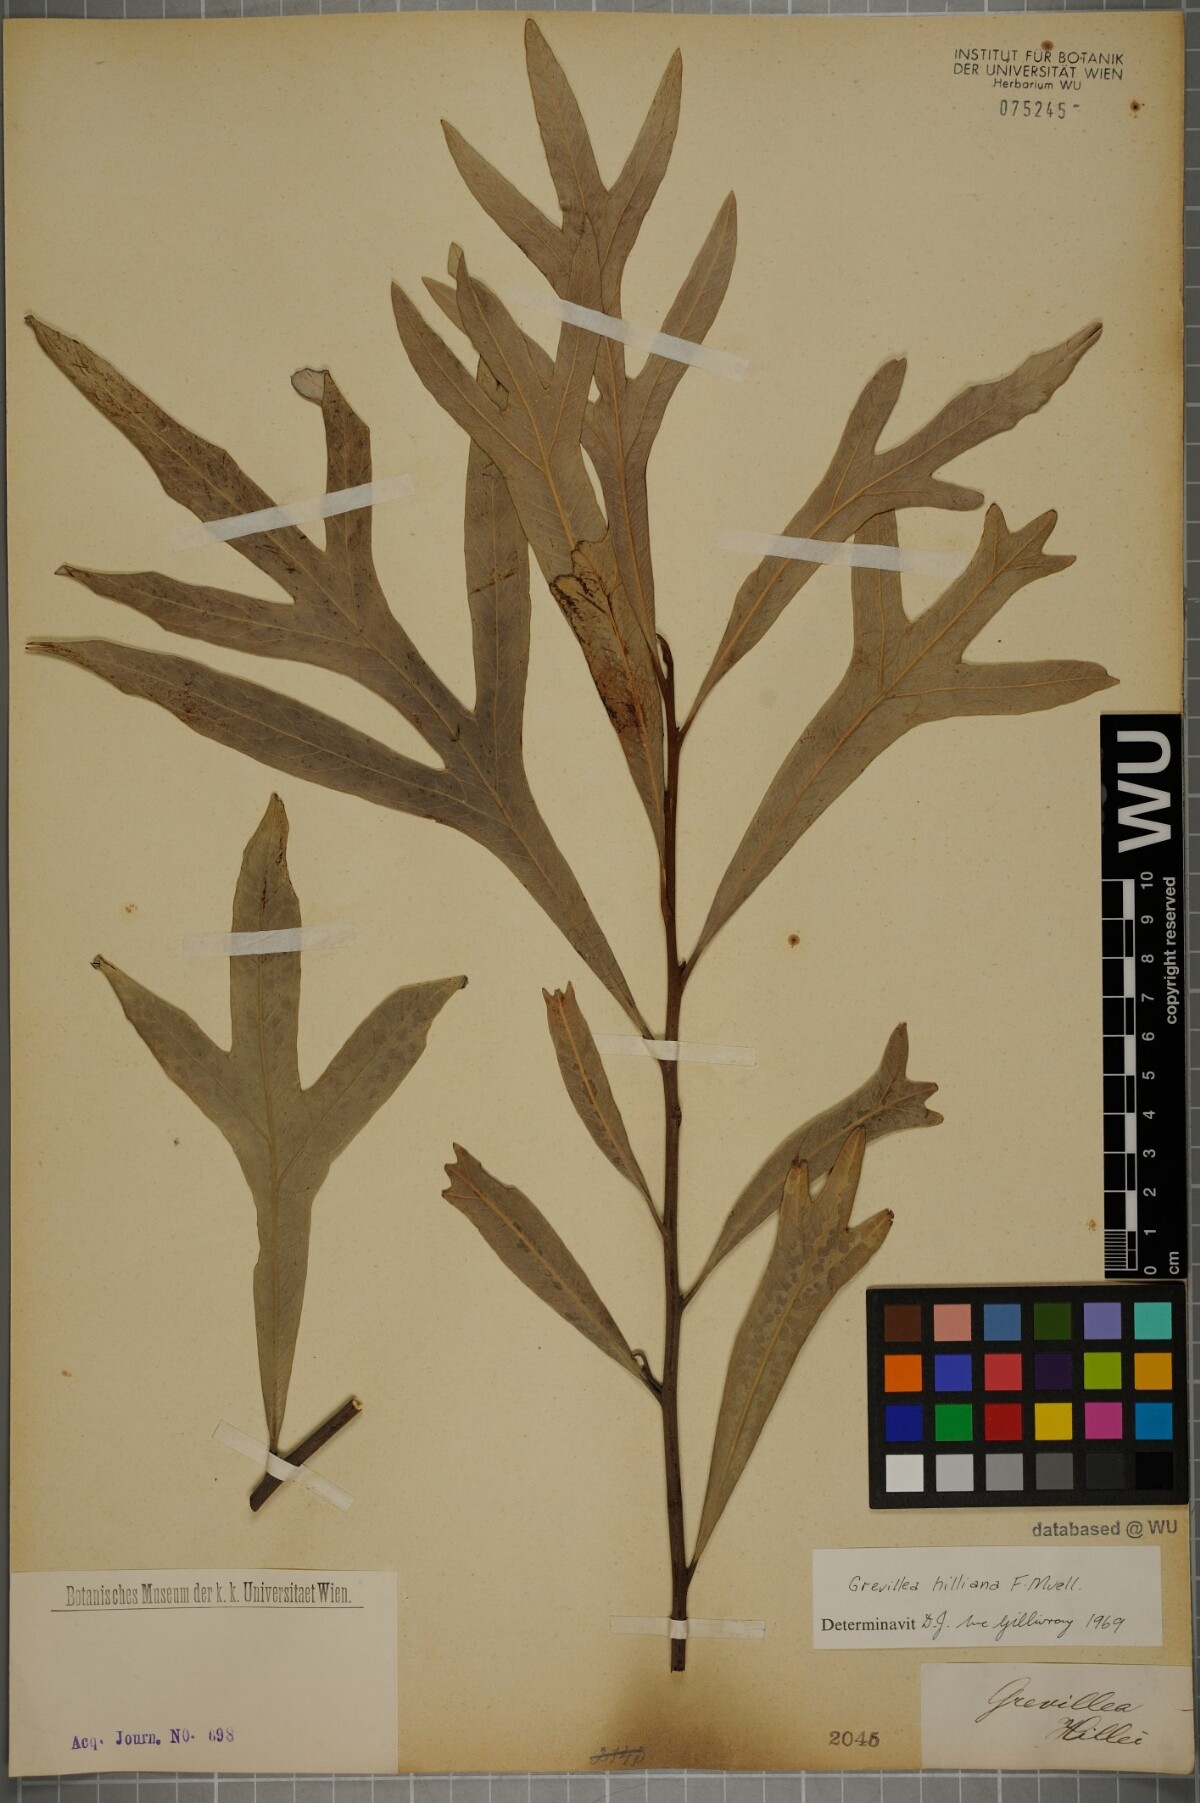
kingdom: Plantae
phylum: Tracheophyta
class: Magnoliopsida
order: Proteales
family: Proteaceae
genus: Grevillea
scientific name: Grevillea hilliana
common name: White silky-oak
